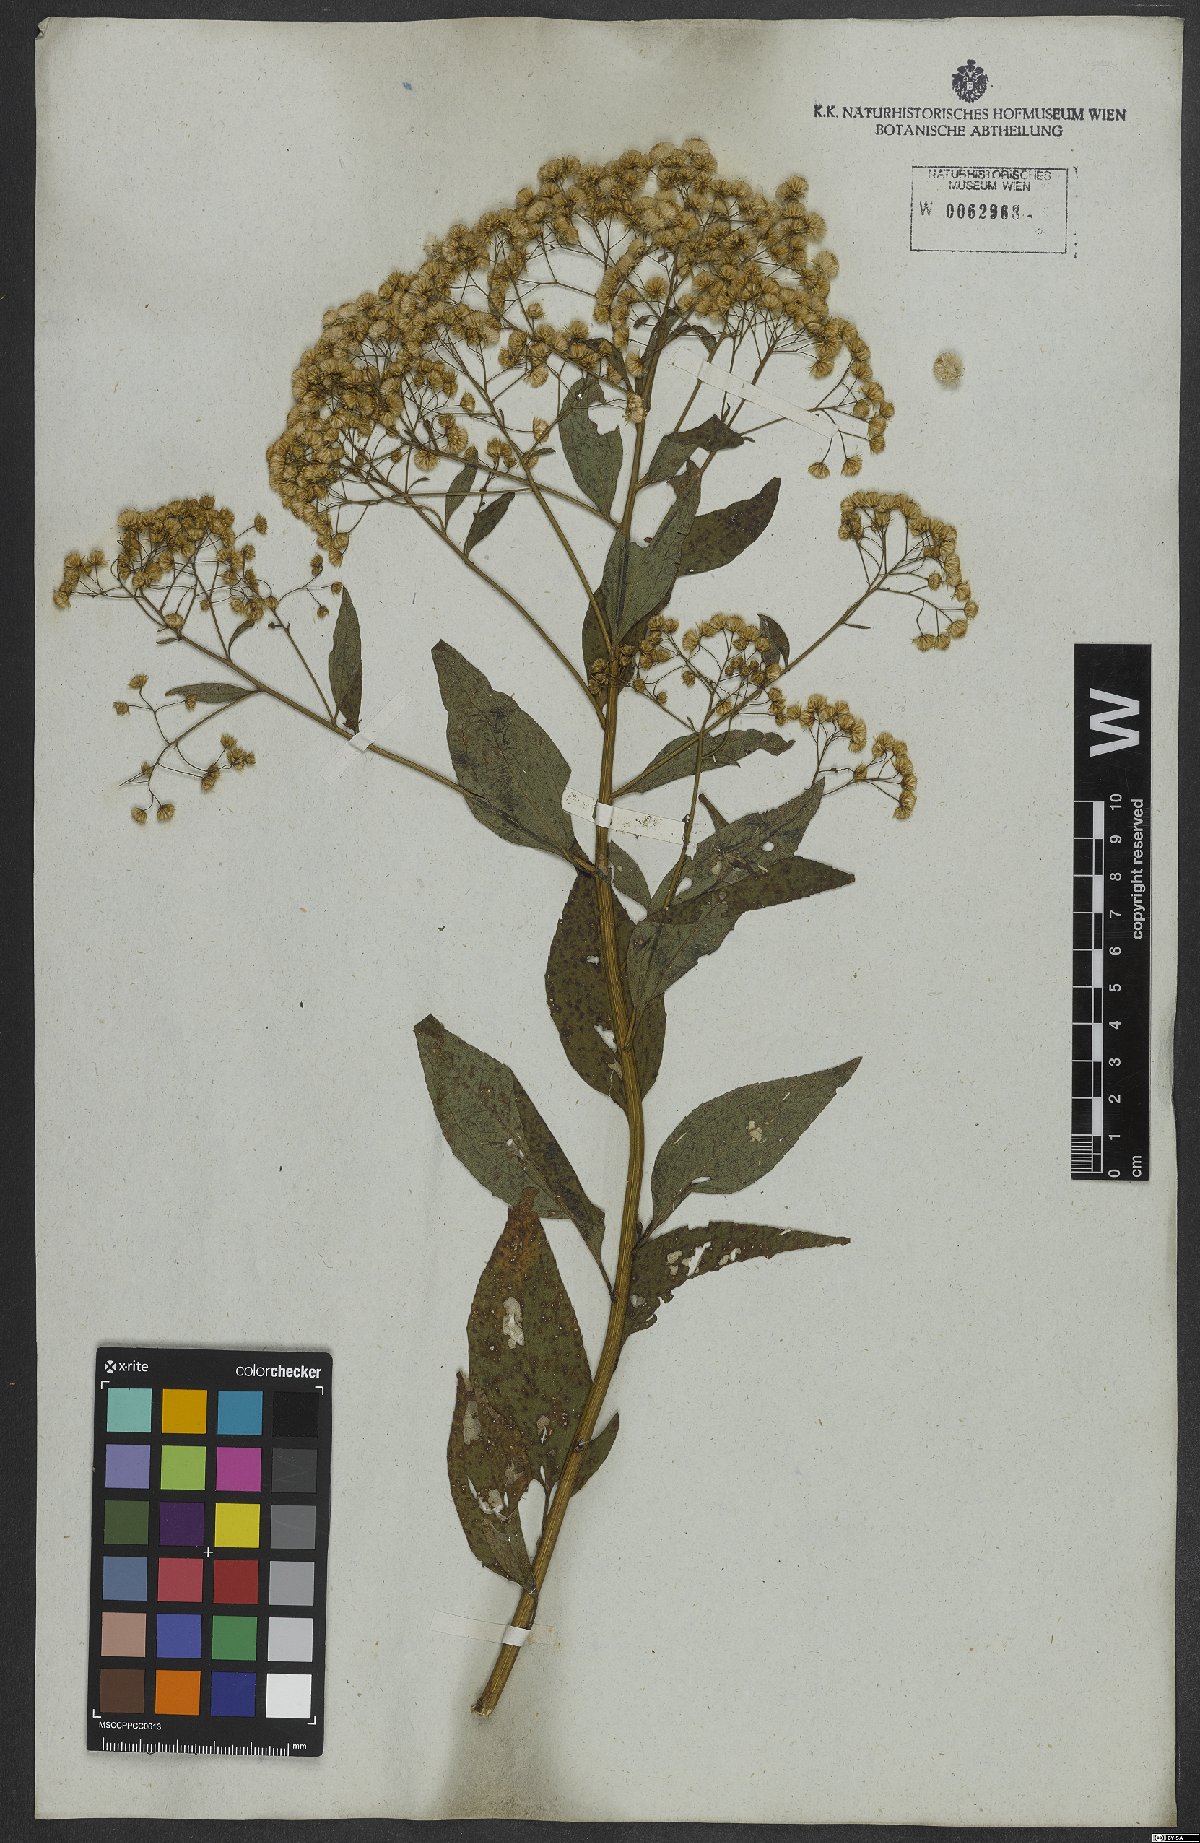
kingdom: Plantae
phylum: Tracheophyta
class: Magnoliopsida
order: Asterales
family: Asteraceae
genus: Archibaccharis
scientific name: Archibaccharis vulneraria
